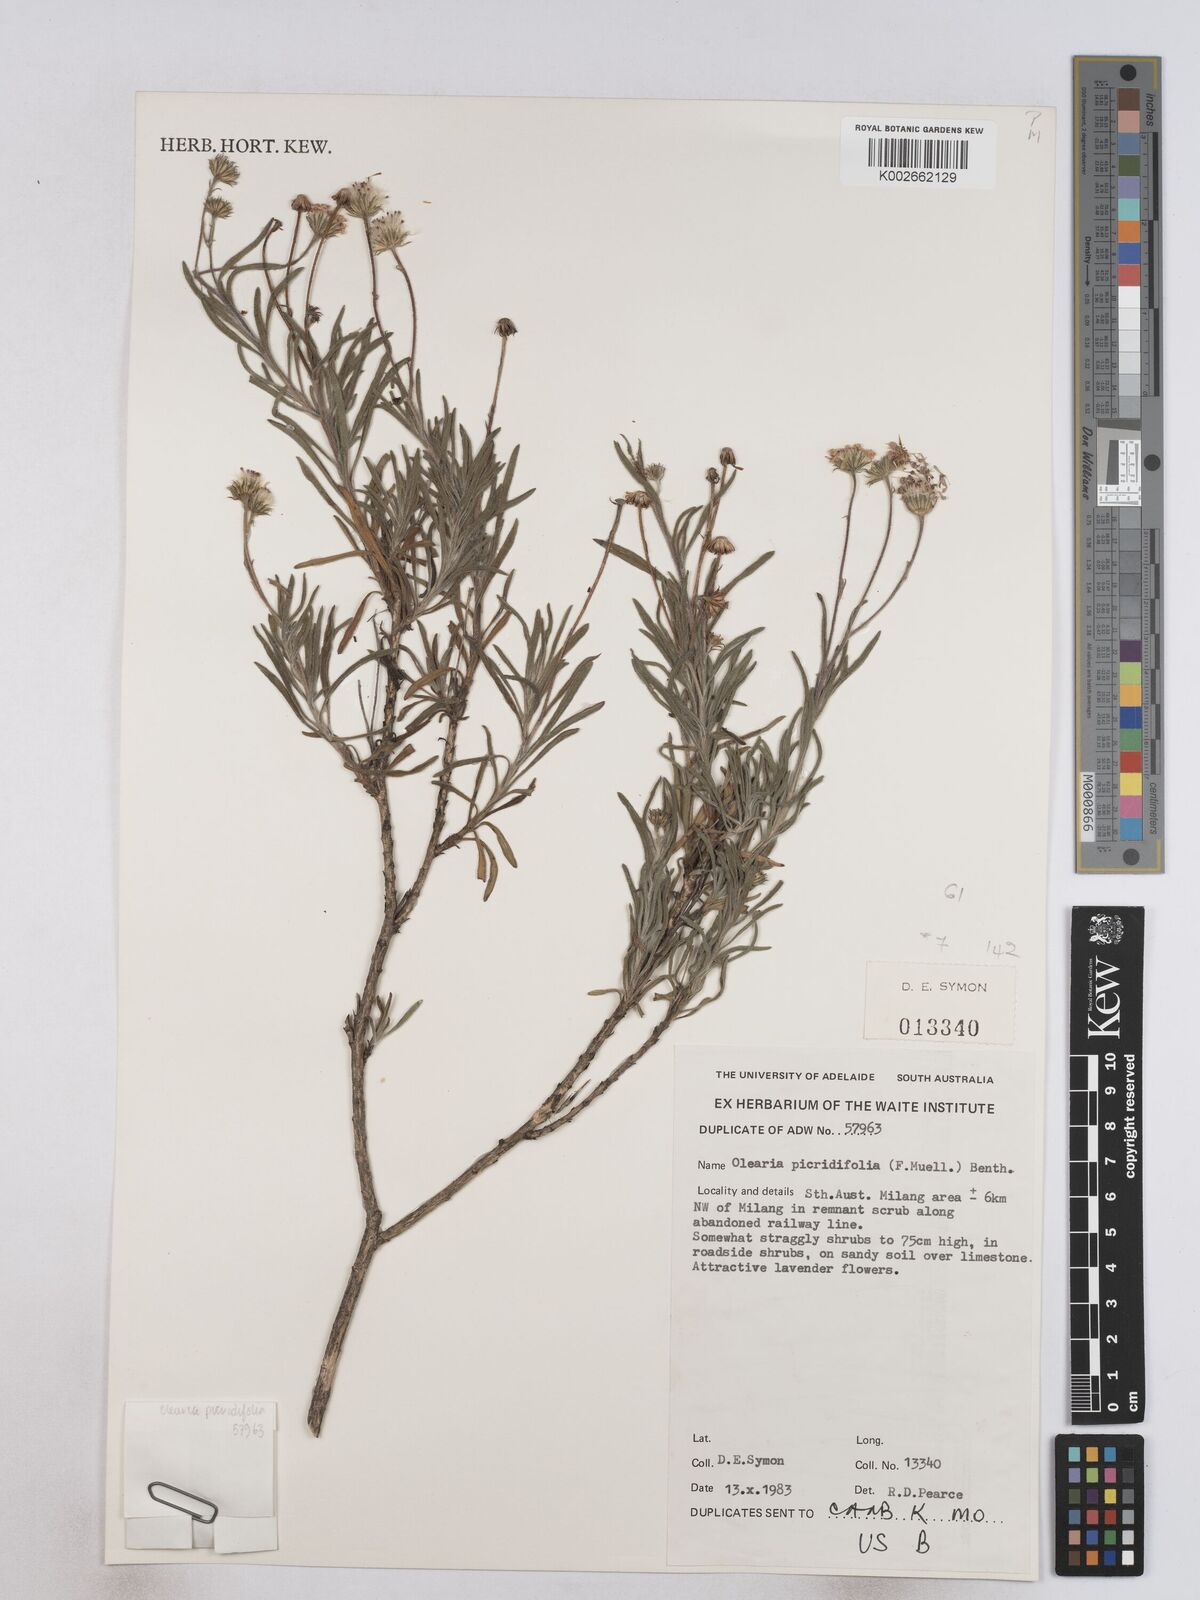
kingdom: Plantae
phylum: Tracheophyta
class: Magnoliopsida
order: Asterales
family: Asteraceae
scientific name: Asteraceae
